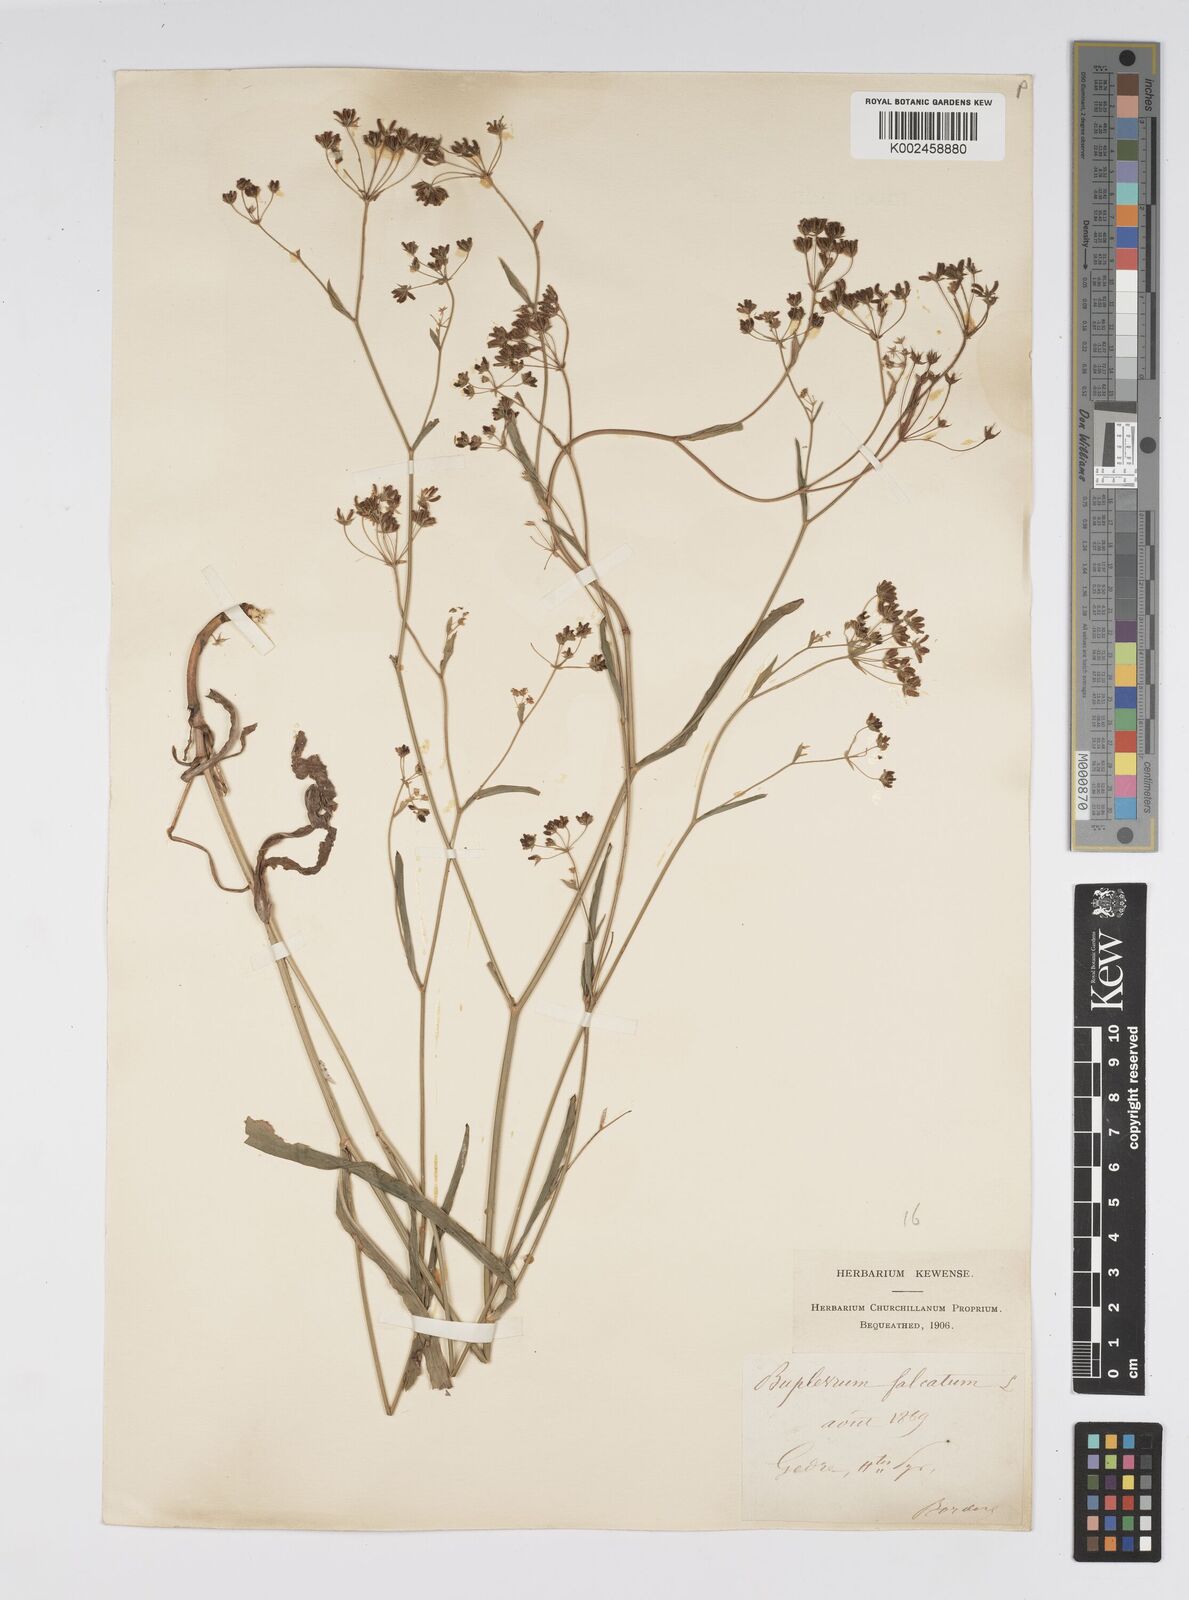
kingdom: Plantae
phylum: Tracheophyta
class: Magnoliopsida
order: Apiales
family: Apiaceae
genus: Bupleurum
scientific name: Bupleurum falcatum
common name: Sickle-leaved hare's-ear
